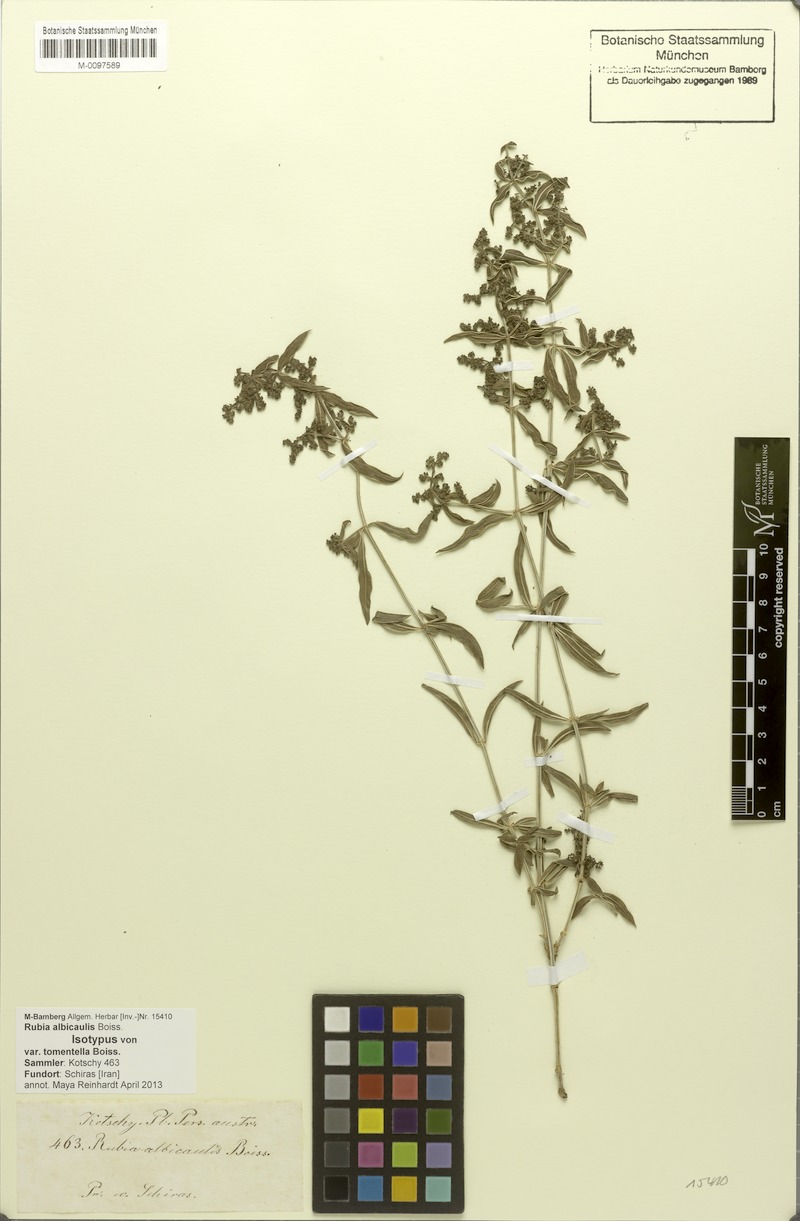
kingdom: Plantae
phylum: Tracheophyta
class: Magnoliopsida
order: Gentianales
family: Rubiaceae
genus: Rubia
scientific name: Rubia albicaulis
